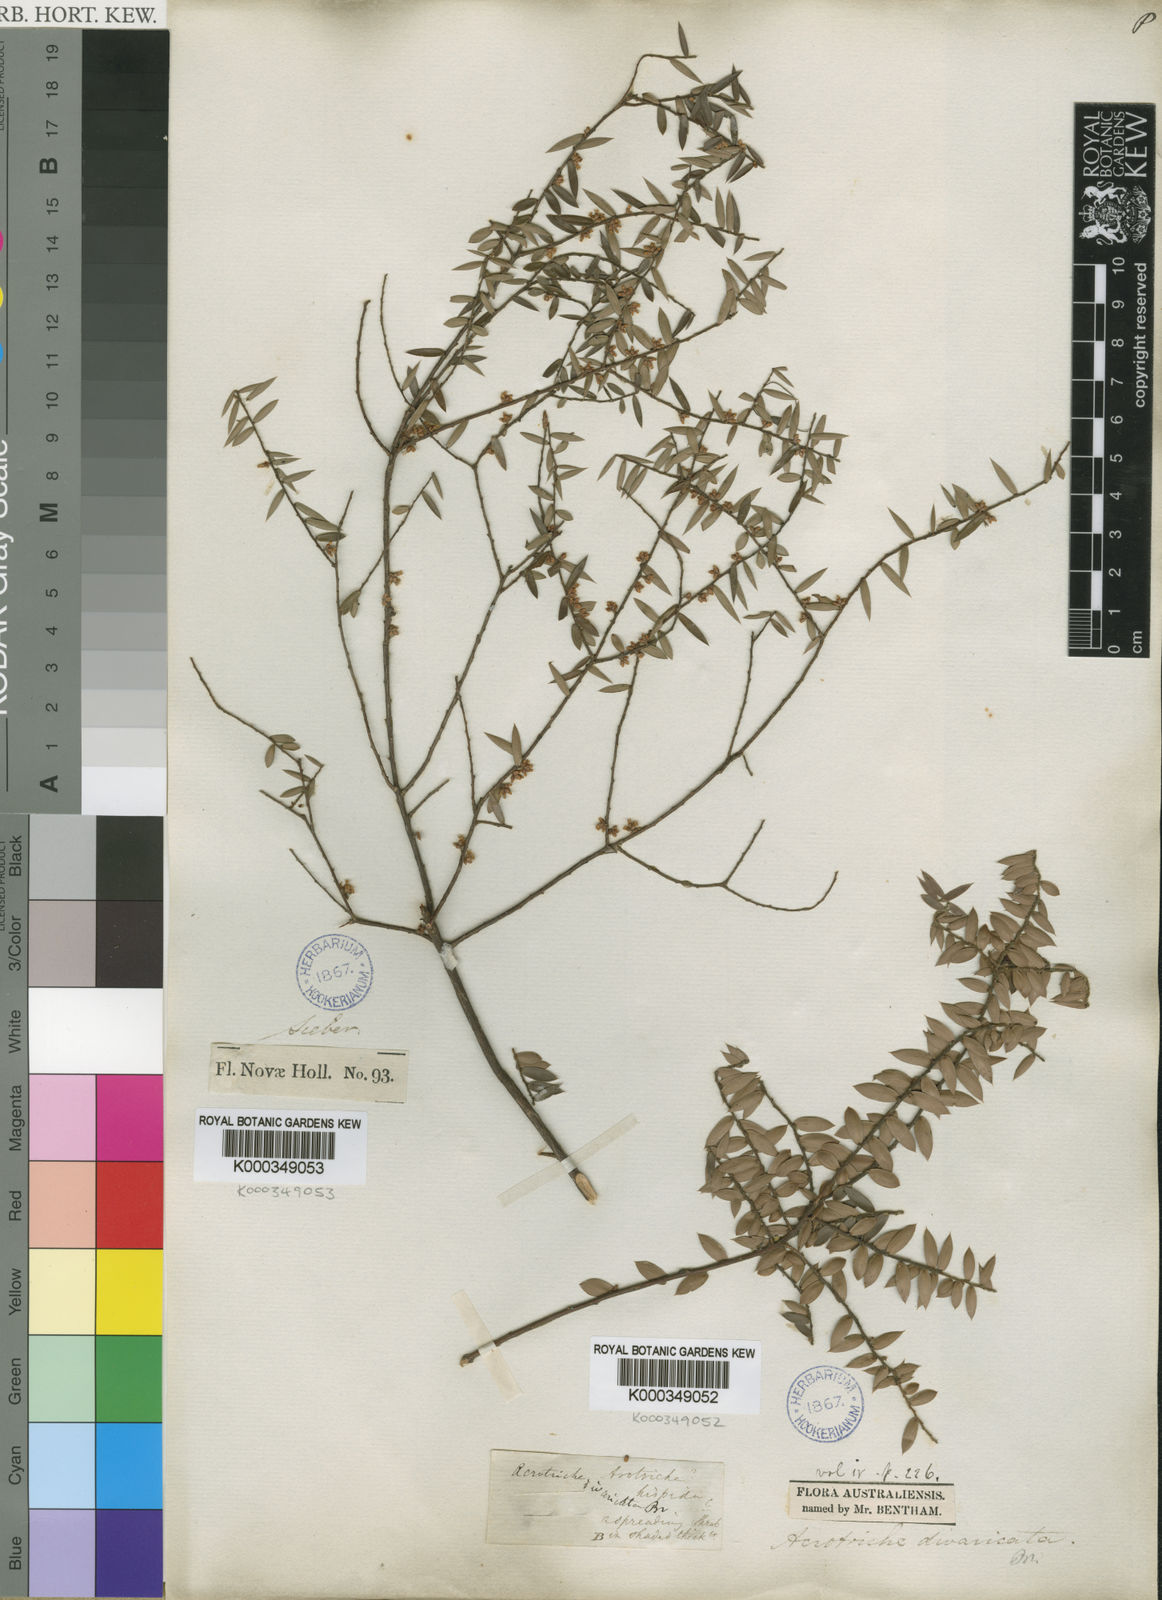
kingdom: Plantae
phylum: Tracheophyta
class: Magnoliopsida
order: Ericales
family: Ericaceae
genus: Acrotriche
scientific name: Acrotriche divaricata
